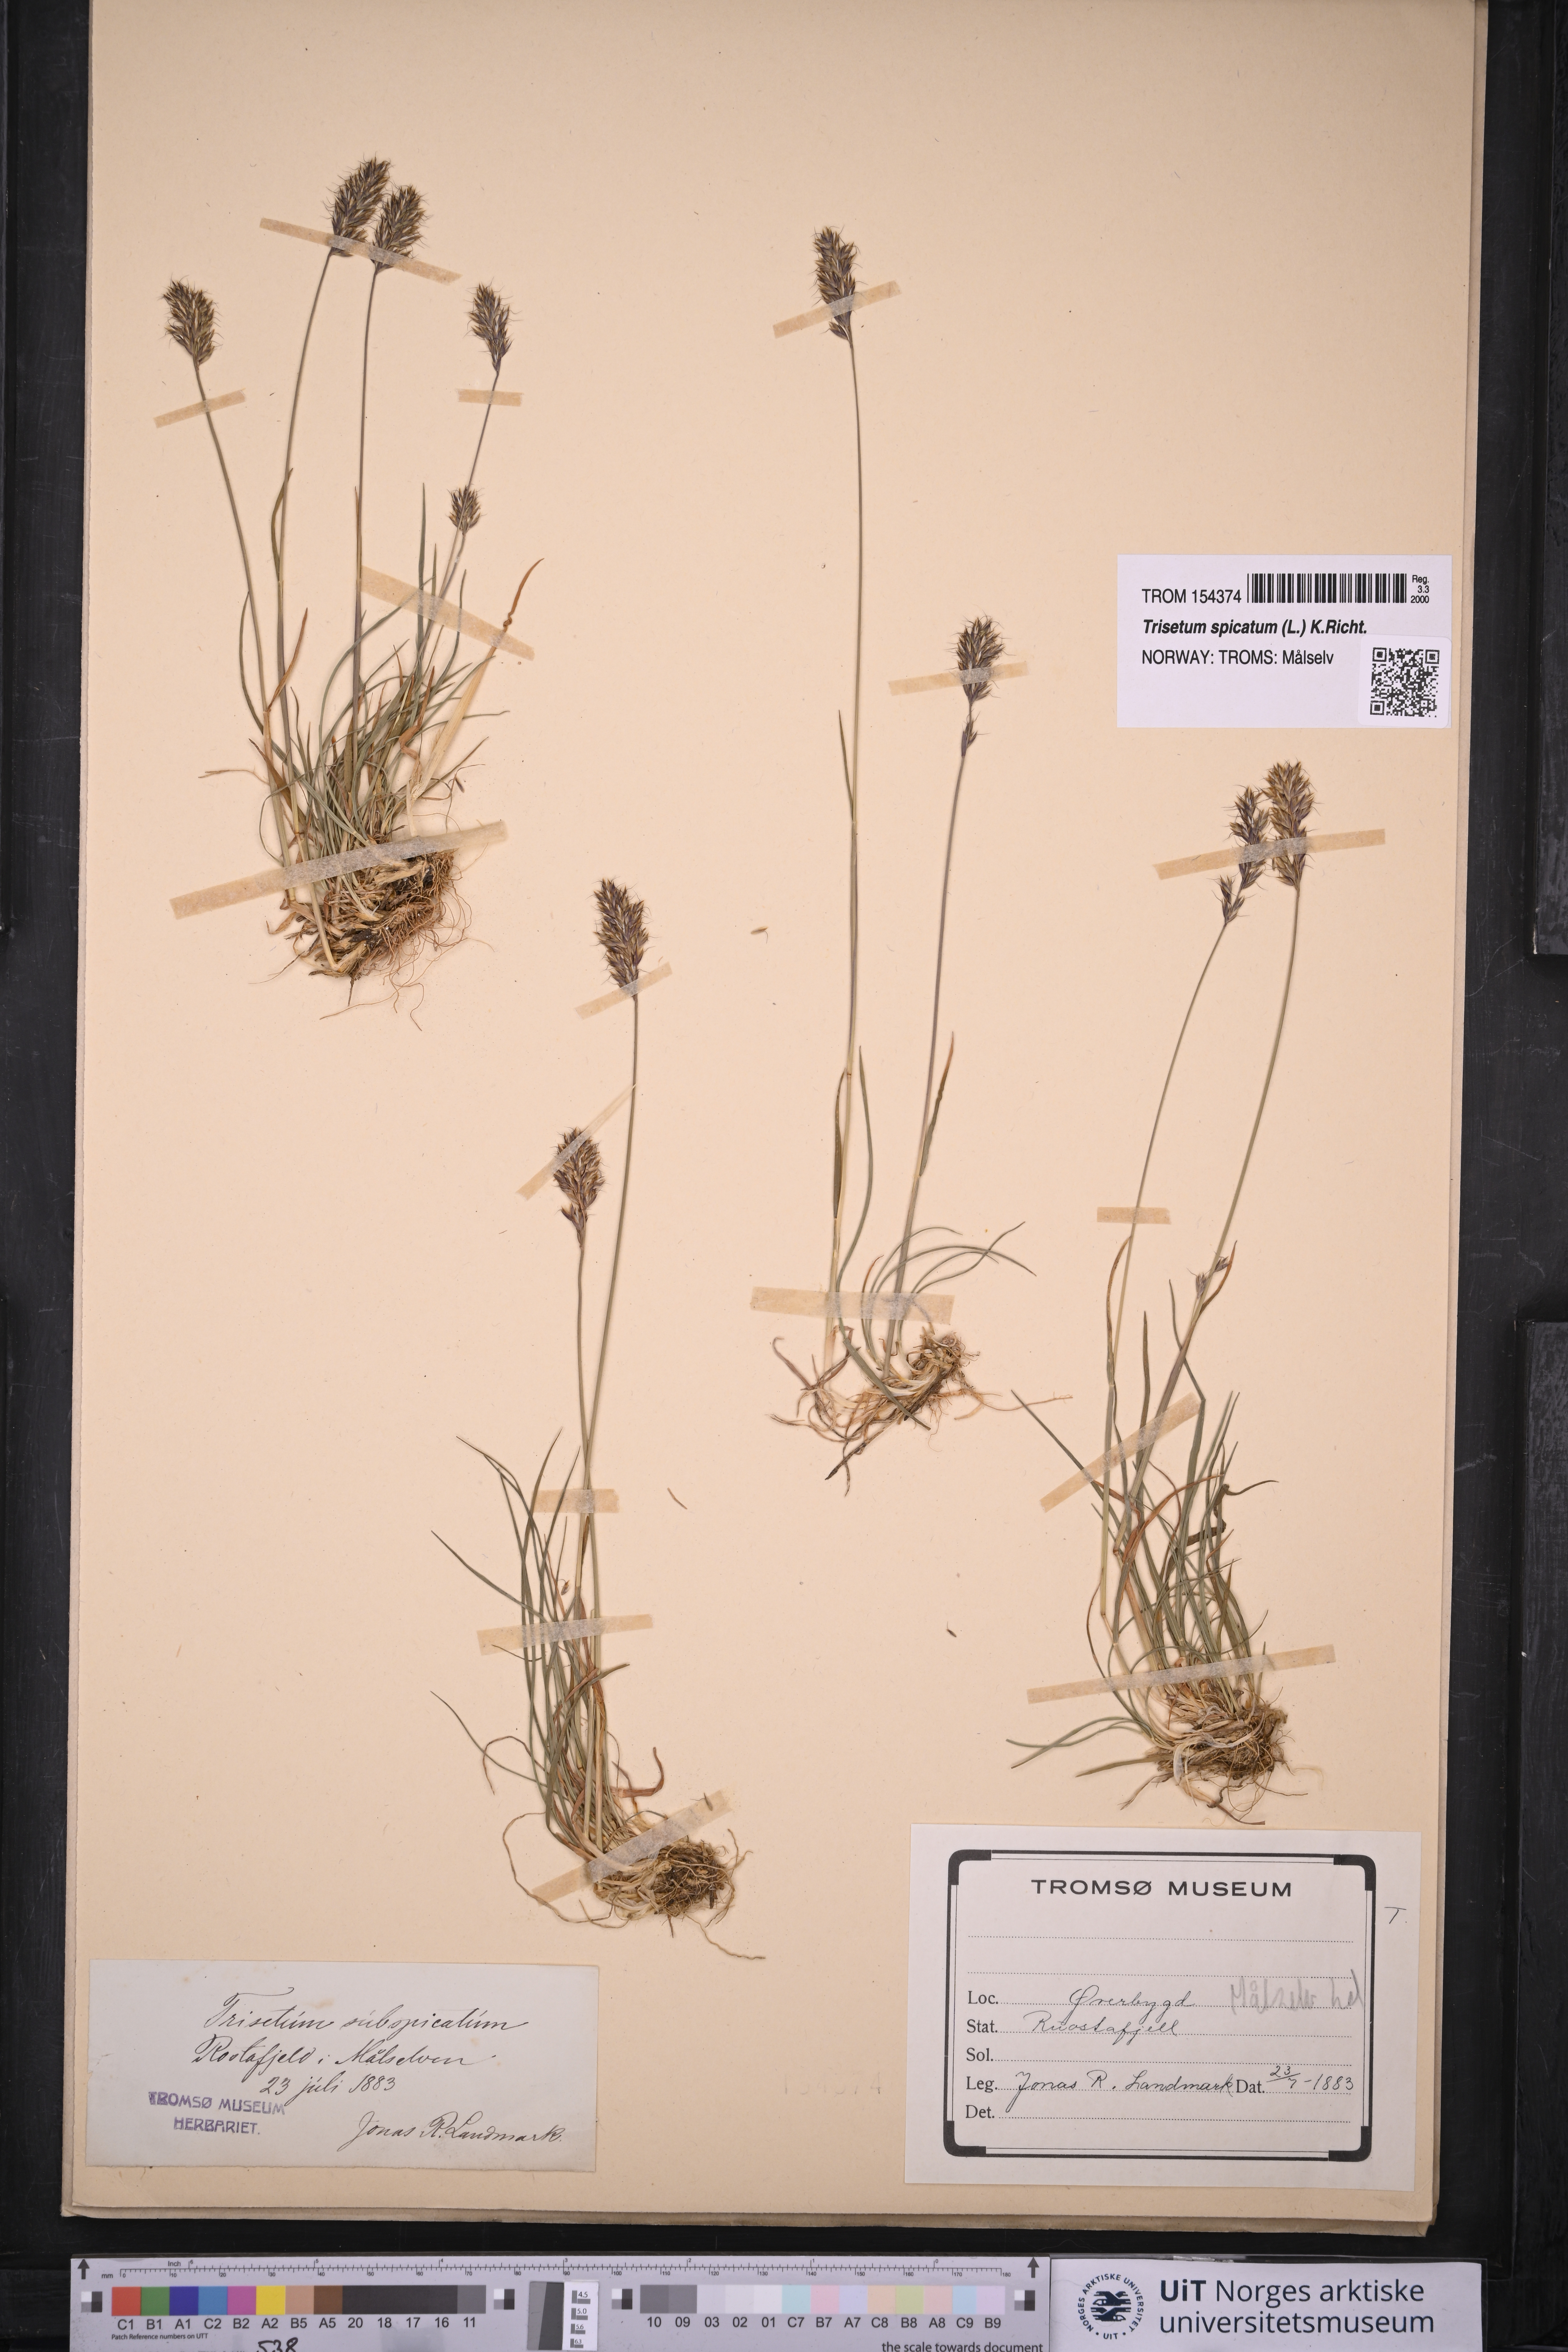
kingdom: Plantae
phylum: Tracheophyta
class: Liliopsida
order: Poales
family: Poaceae
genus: Koeleria
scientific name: Koeleria spicata
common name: Mountain trisetum
